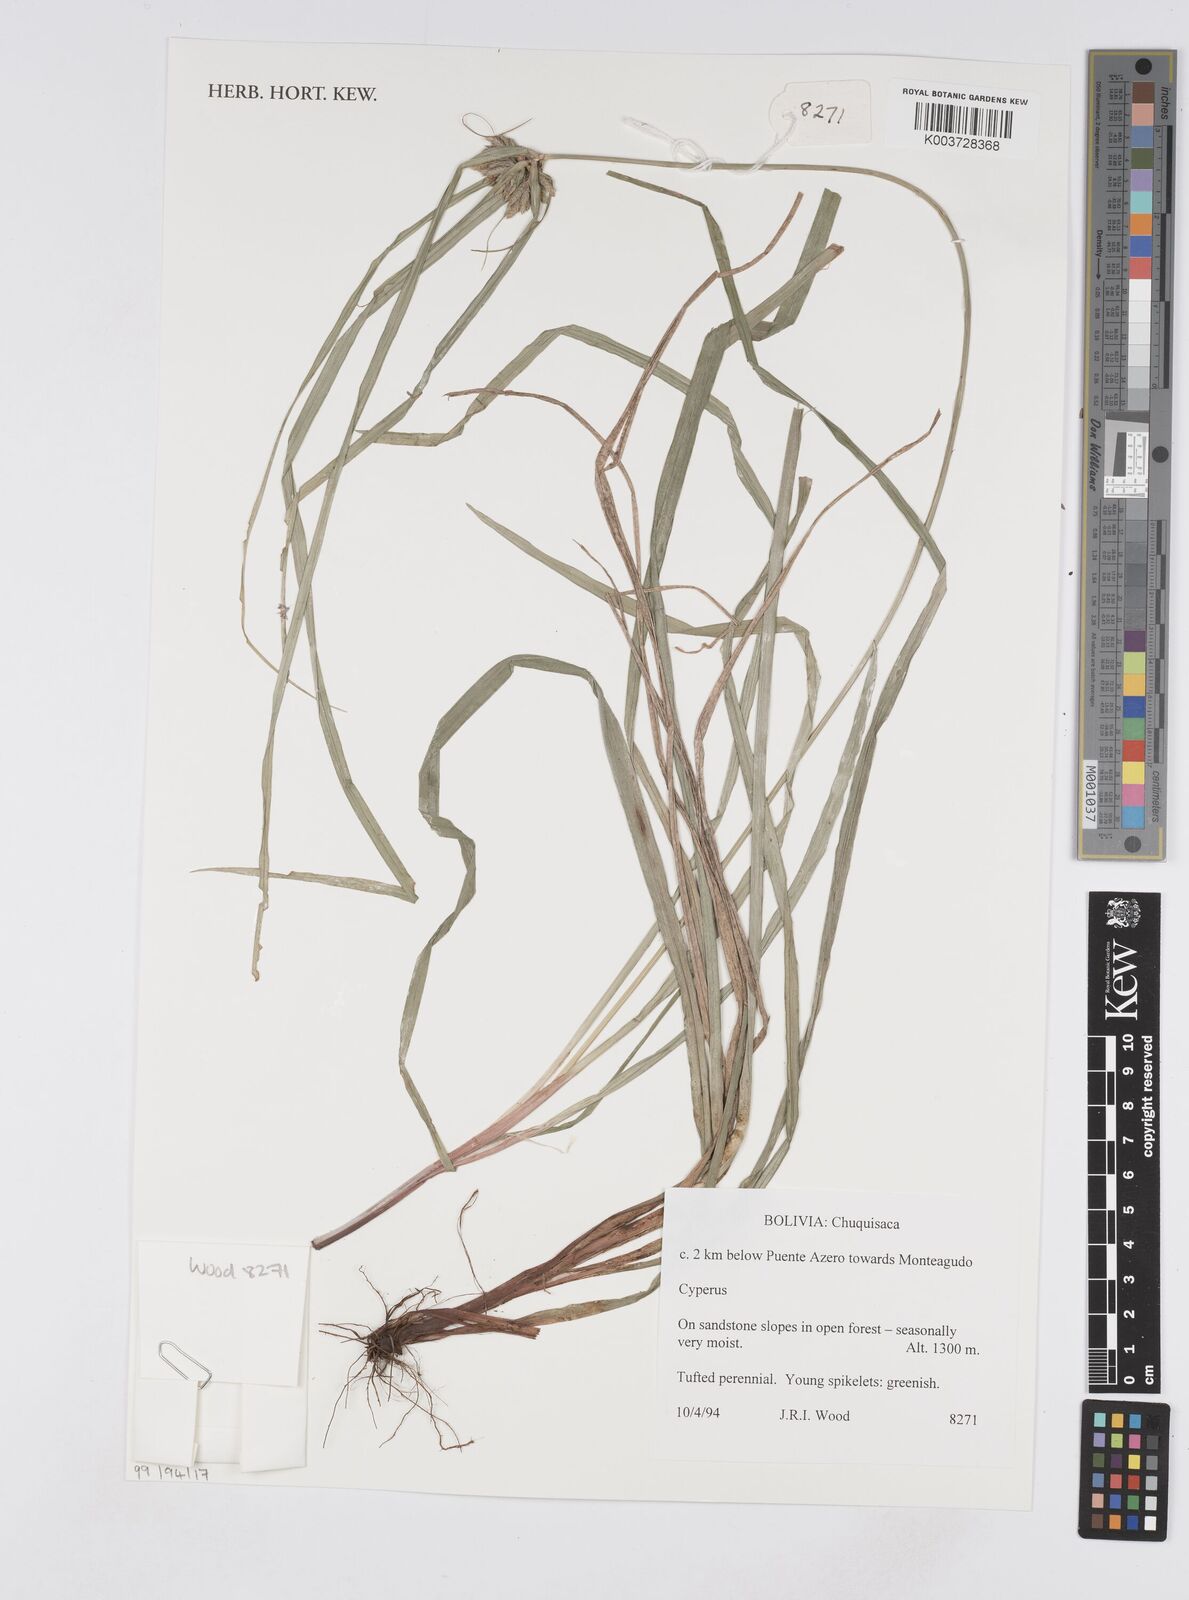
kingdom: Plantae
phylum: Tracheophyta
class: Liliopsida
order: Poales
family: Cyperaceae
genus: Cyperus
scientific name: Cyperus
